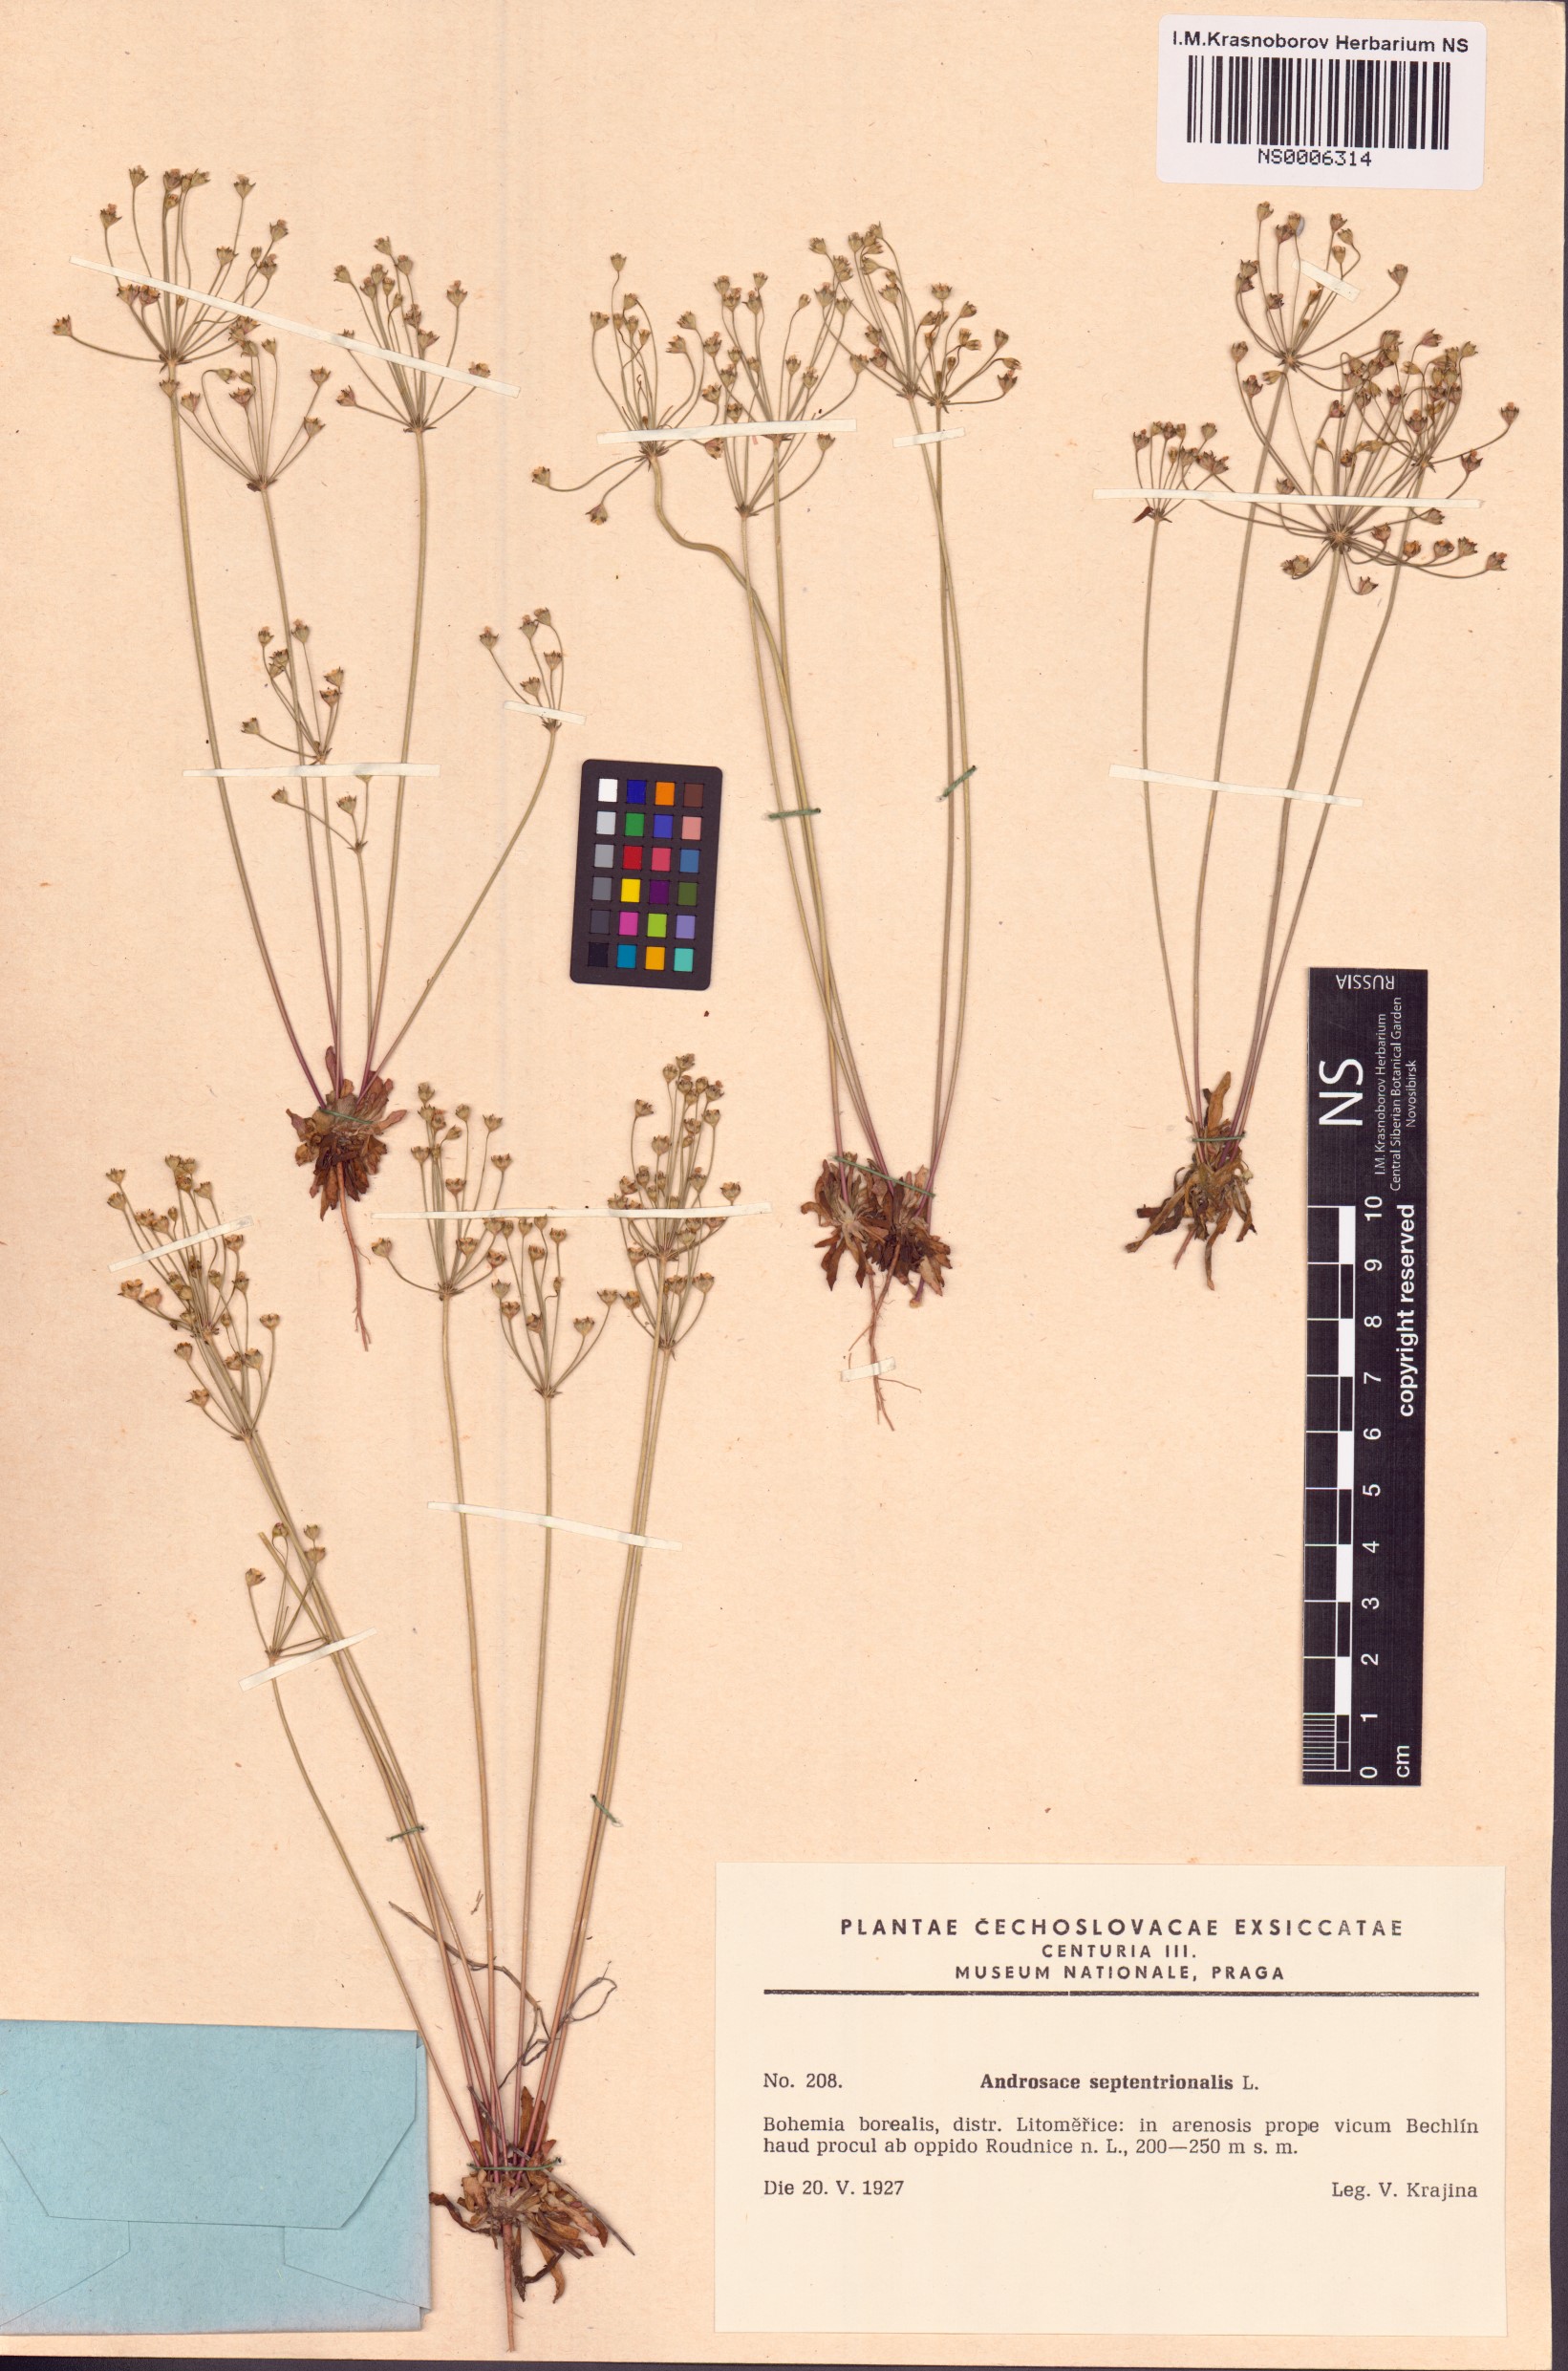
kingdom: Plantae
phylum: Tracheophyta
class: Magnoliopsida
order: Ericales
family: Primulaceae
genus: Androsace
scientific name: Androsace septentrionalis
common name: Hairy northern fairy-candelabra
